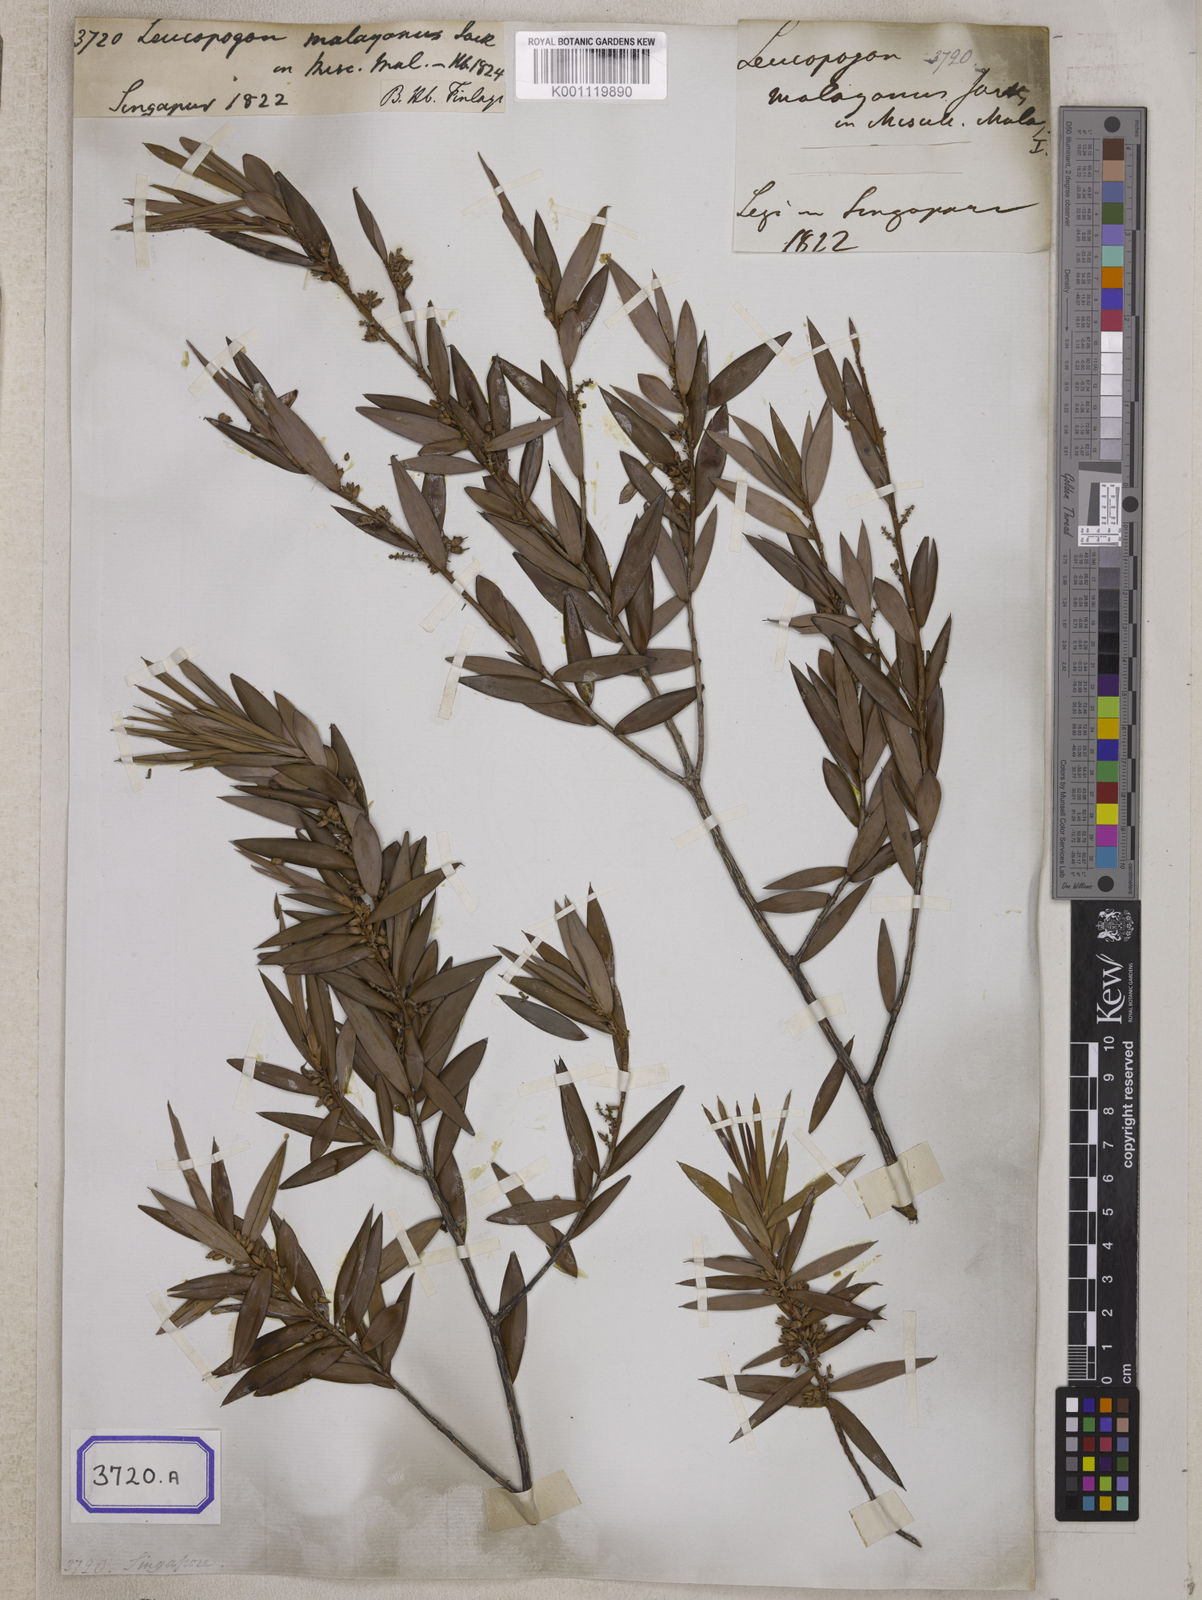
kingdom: Plantae
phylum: Tracheophyta
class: Magnoliopsida
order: Ericales
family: Ericaceae
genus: Styphelia
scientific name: Styphelia malayana
